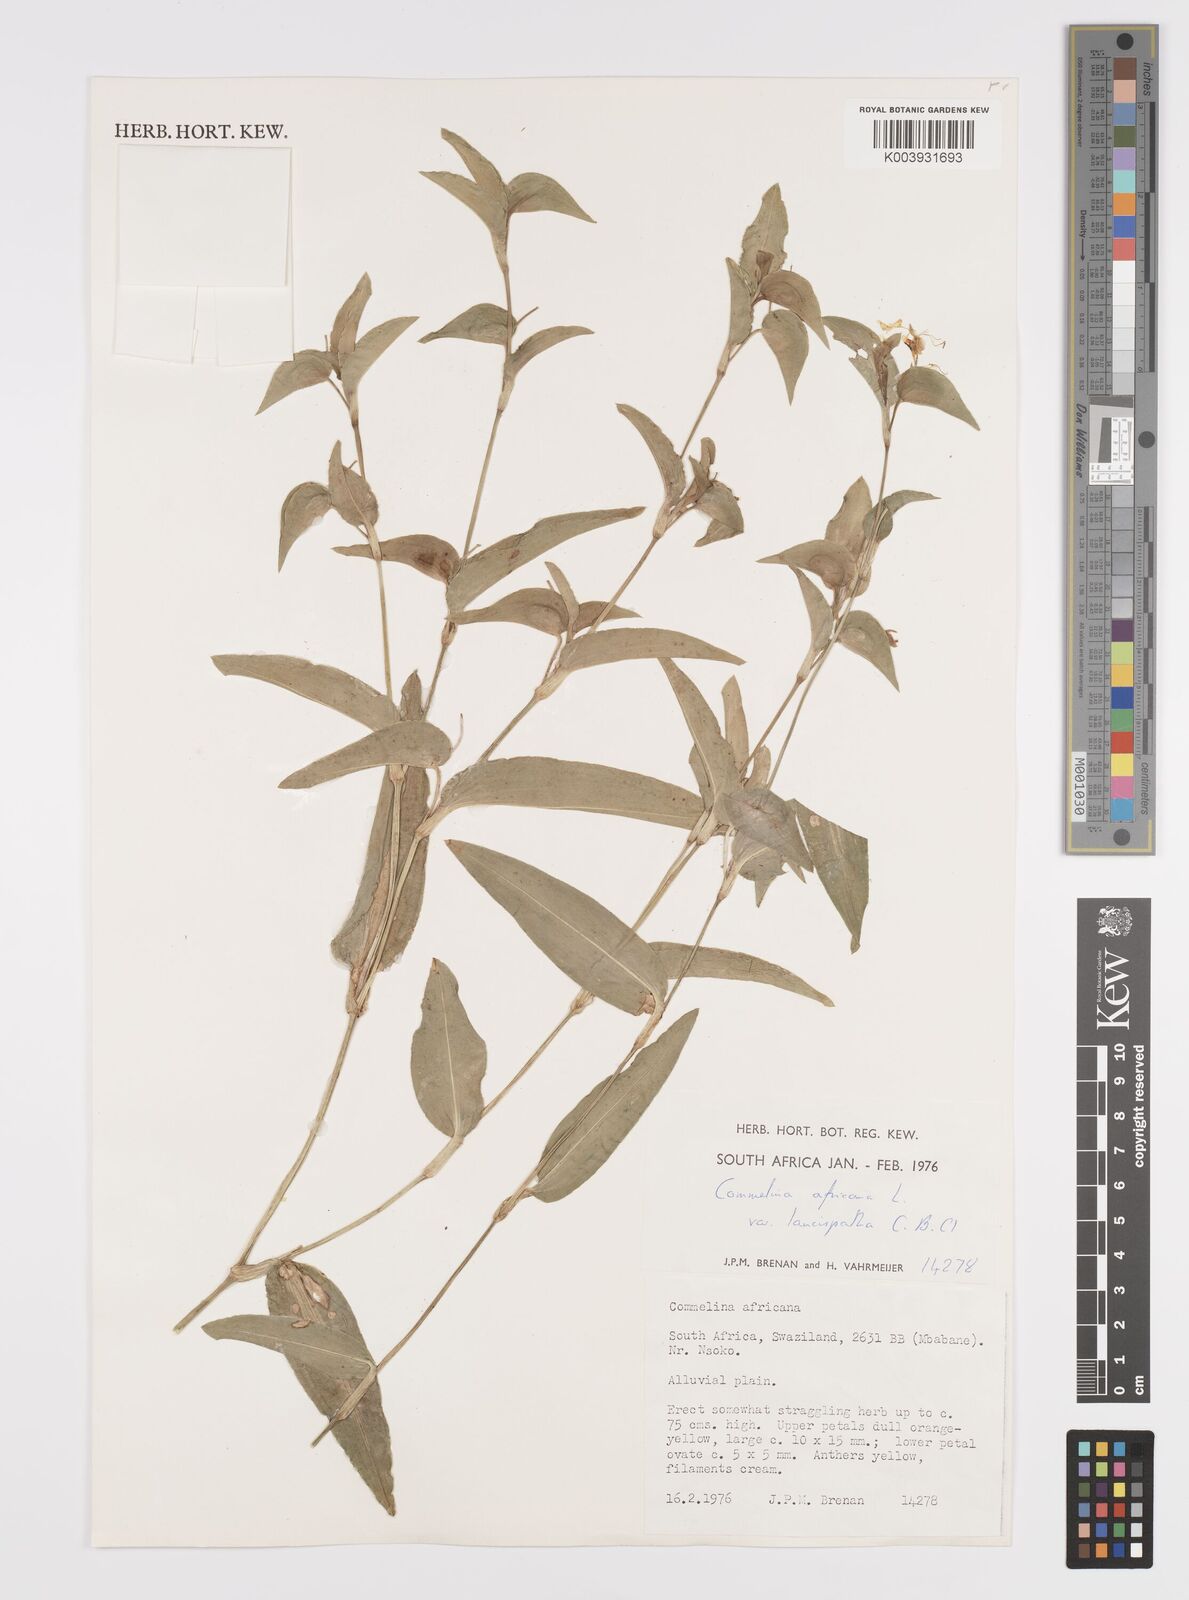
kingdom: Plantae
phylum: Tracheophyta
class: Liliopsida
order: Commelinales
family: Commelinaceae
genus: Commelina
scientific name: Commelina africana
